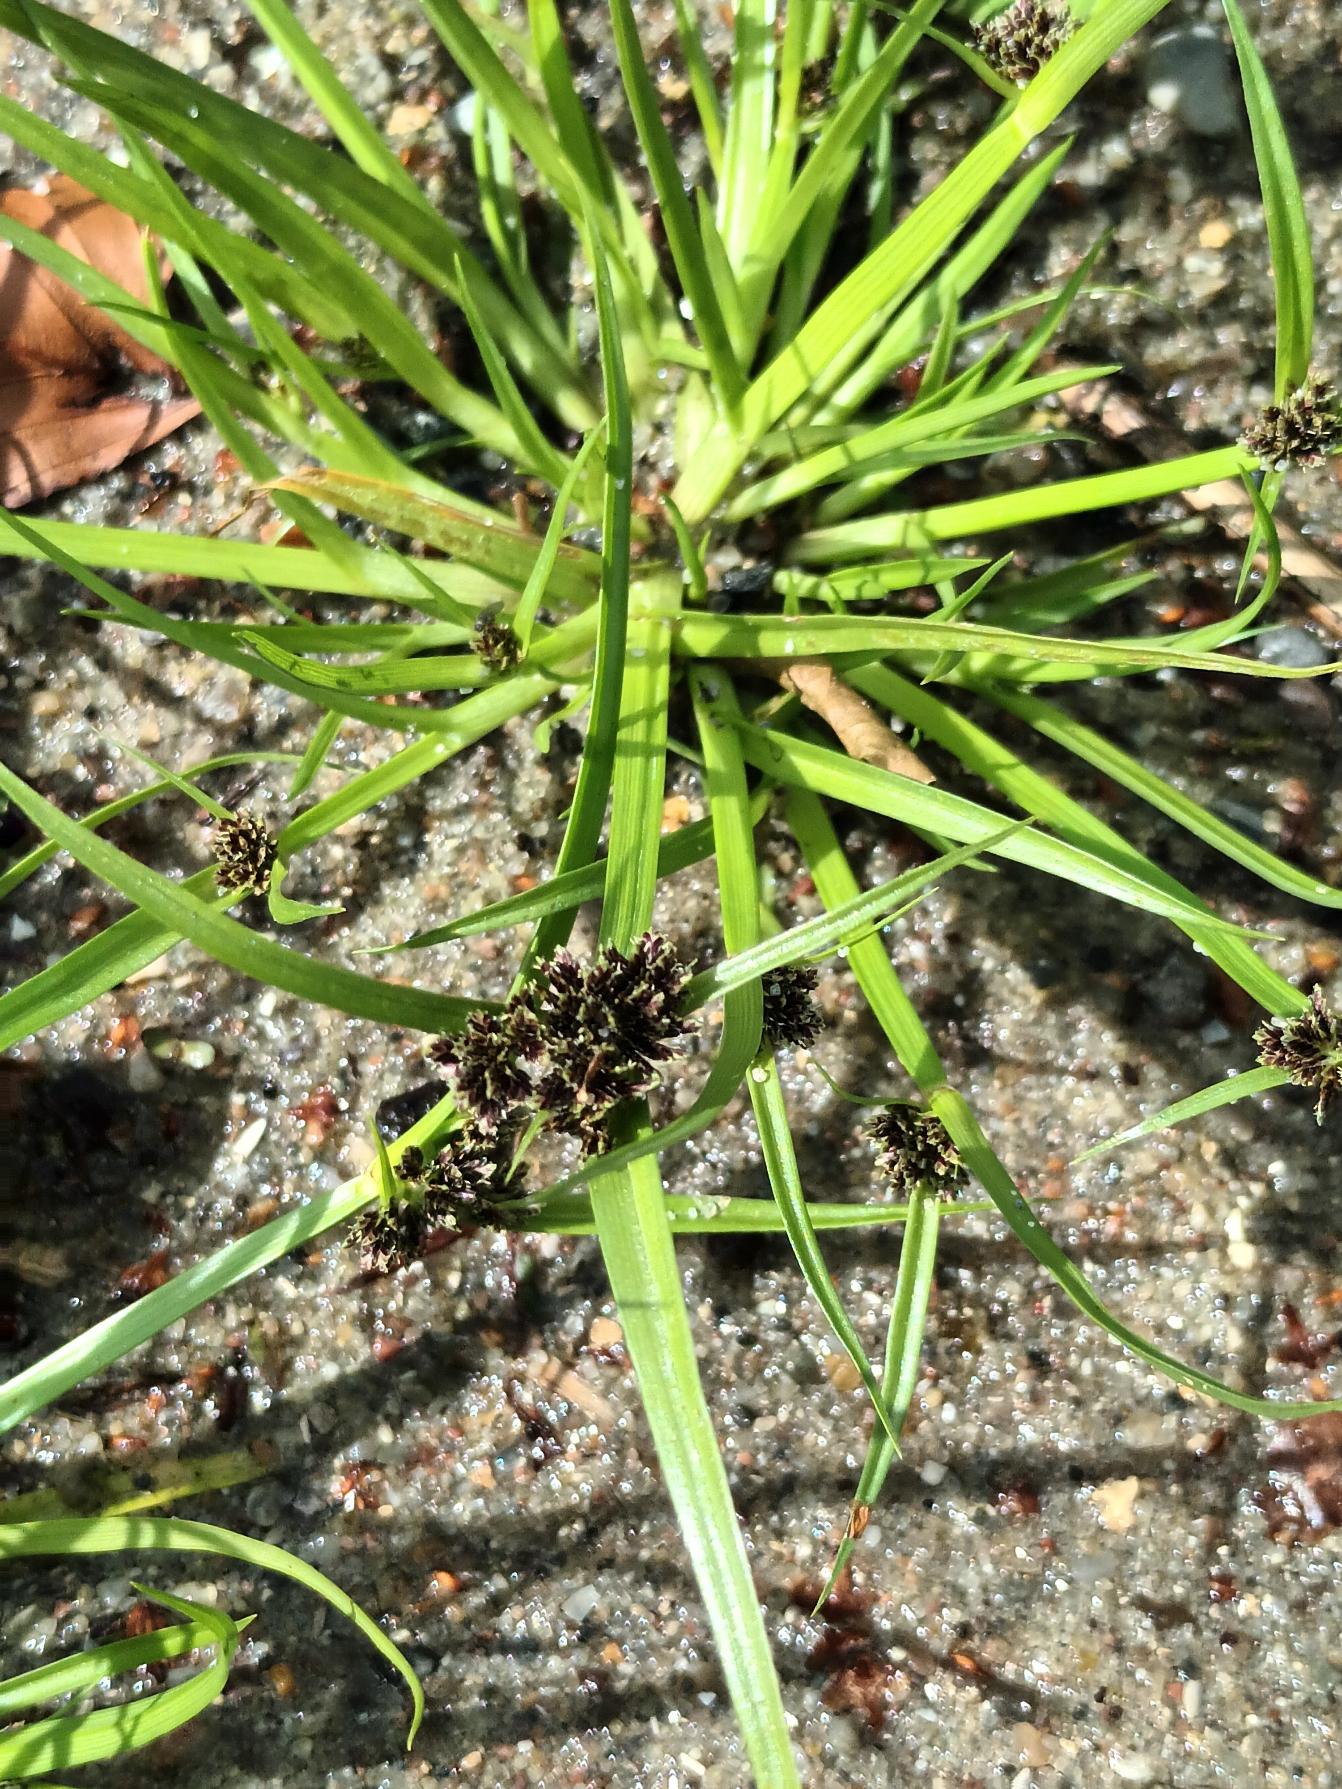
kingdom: Plantae
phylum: Tracheophyta
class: Liliopsida
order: Poales
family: Cyperaceae
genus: Cyperus
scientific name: Cyperus fuscus
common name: Brun fladaks
